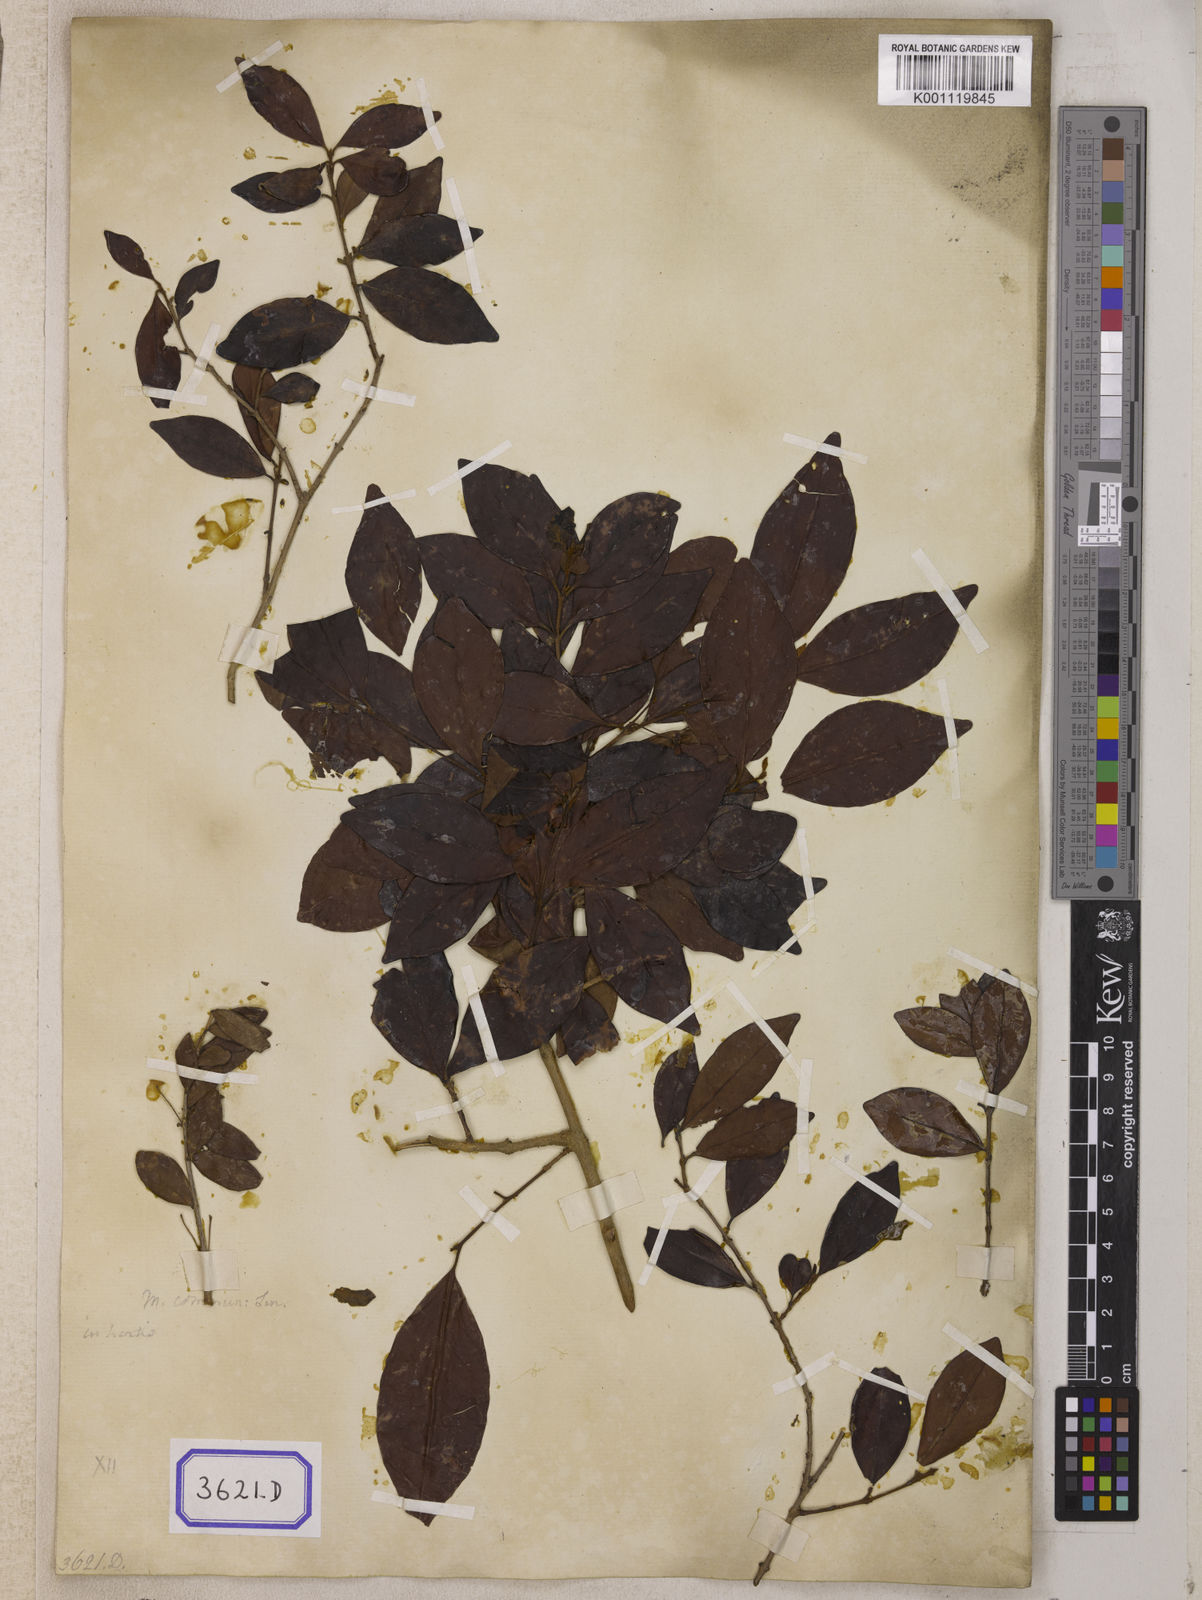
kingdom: Plantae
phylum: Tracheophyta
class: Magnoliopsida
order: Myrtales
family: Myrtaceae
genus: Eugenia
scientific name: Eugenia roxburghii
